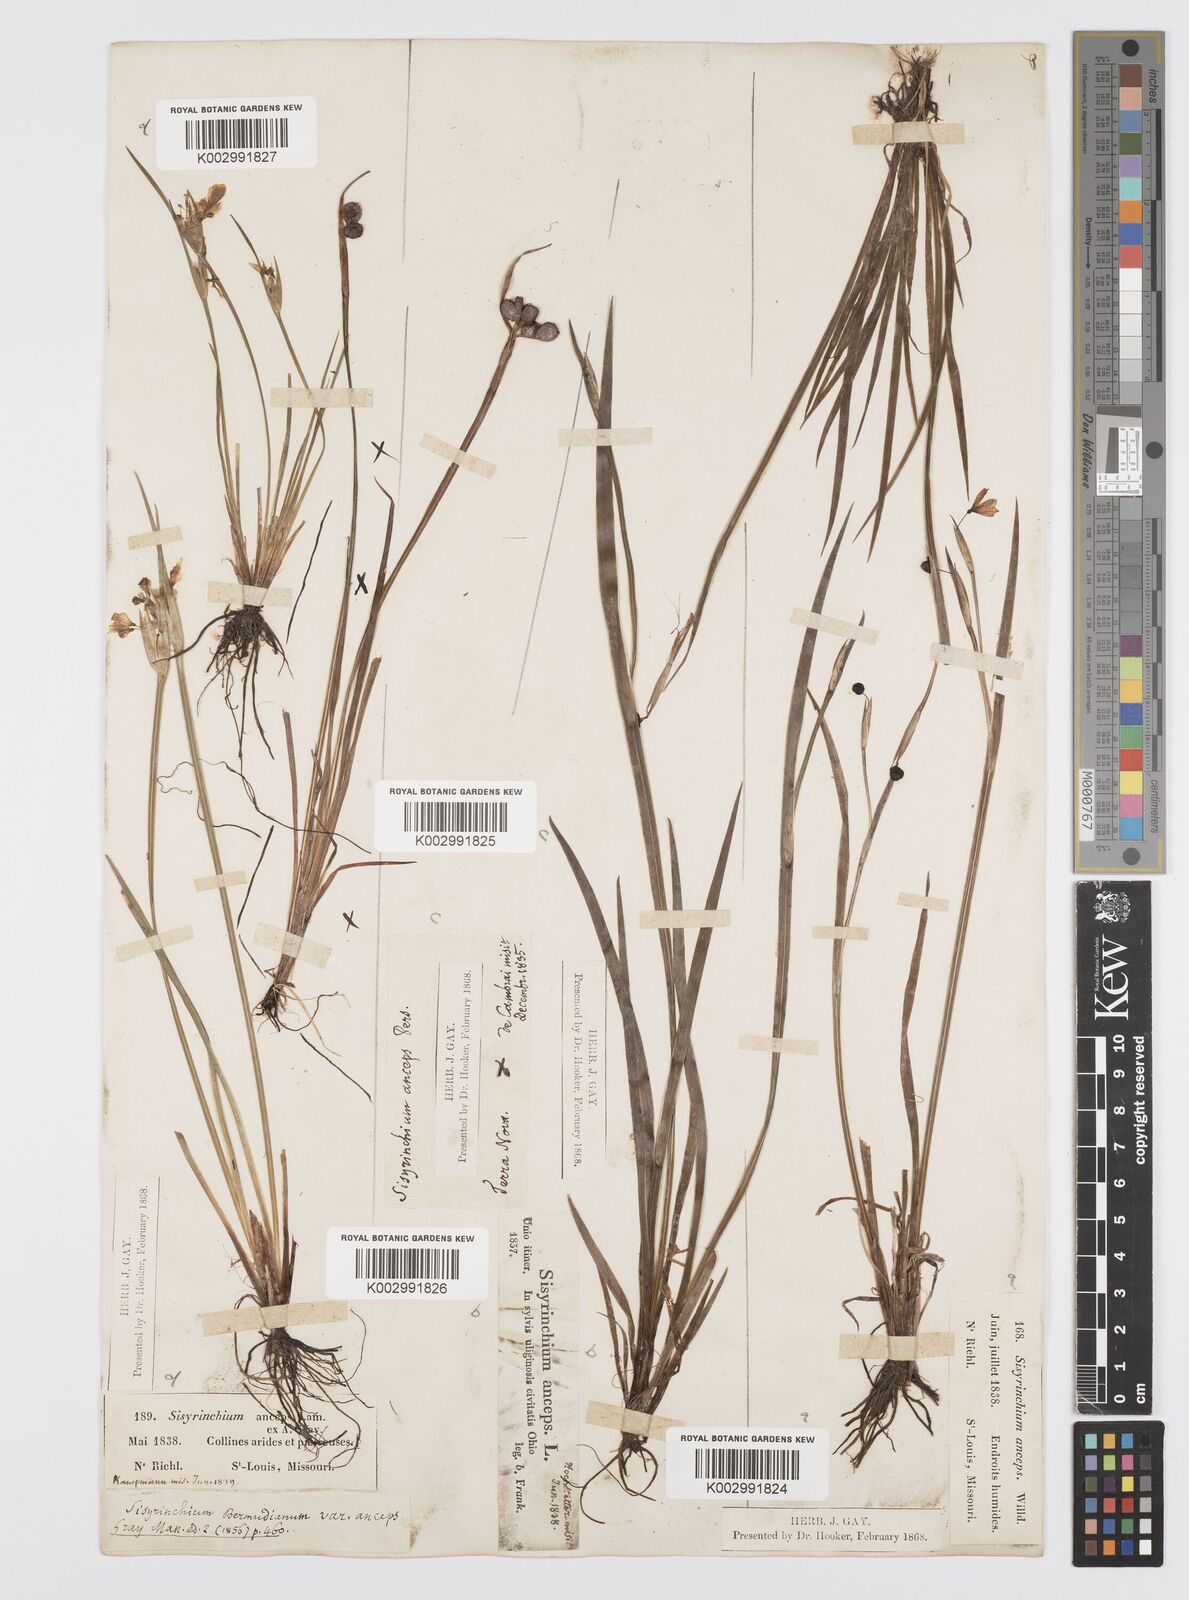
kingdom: Plantae
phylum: Tracheophyta
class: Liliopsida
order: Asparagales
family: Iridaceae
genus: Sisyrinchium
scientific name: Sisyrinchium bermudiana
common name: Blue-eyed-grass
